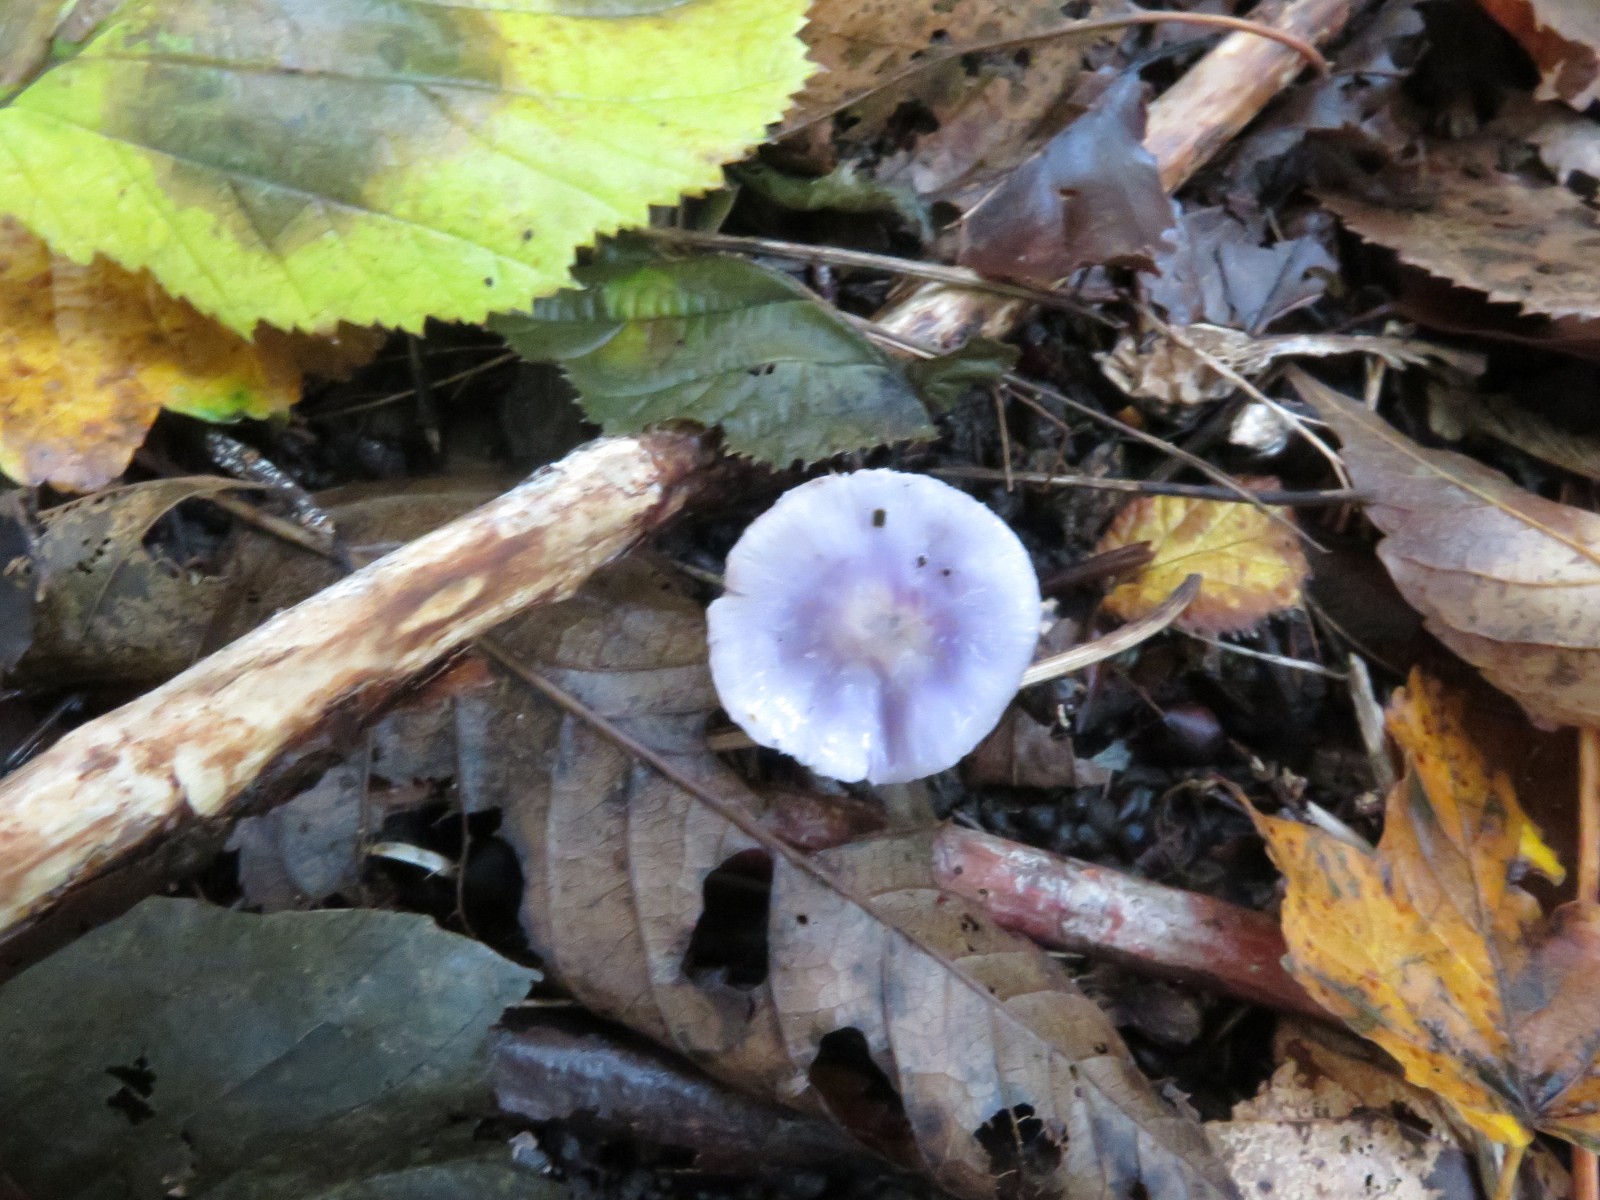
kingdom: Fungi
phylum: Basidiomycota
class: Agaricomycetes
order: Agaricales
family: Inocybaceae
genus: Inocybe
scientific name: Inocybe geophylla
